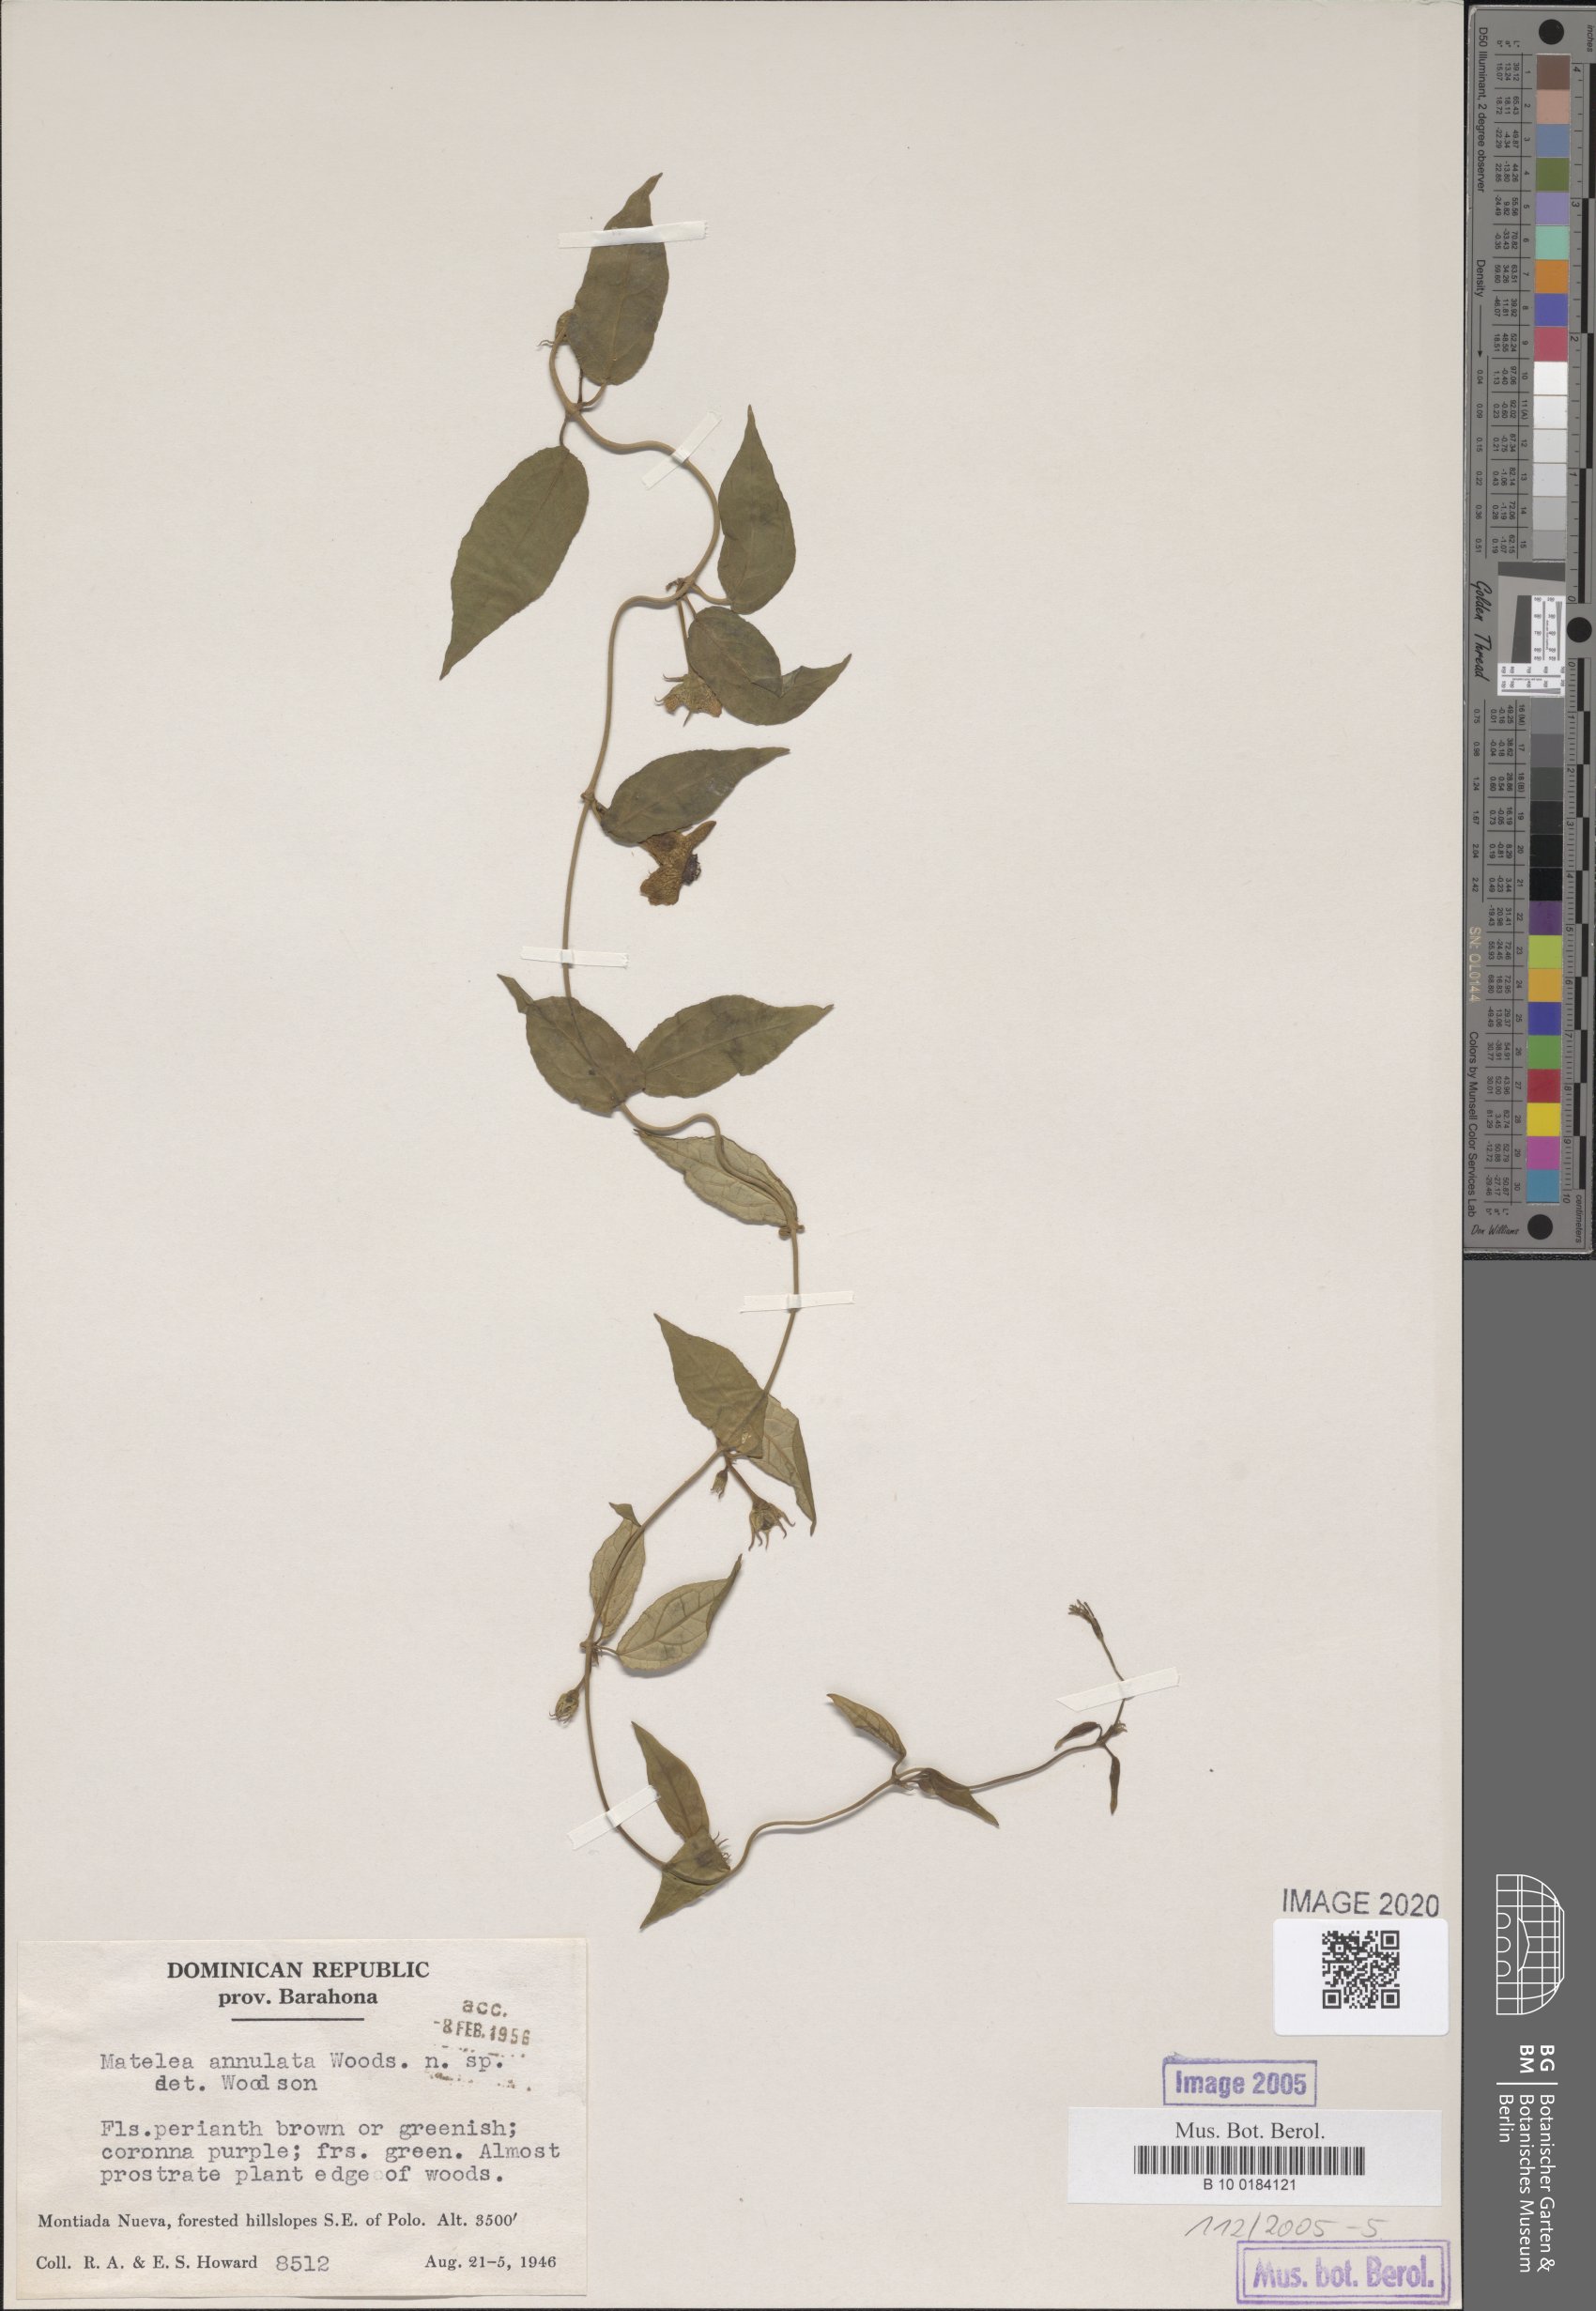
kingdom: Plantae
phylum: Tracheophyta
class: Magnoliopsida
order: Gentianales
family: Apocynaceae
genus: Matelea
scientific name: Matelea annulata
